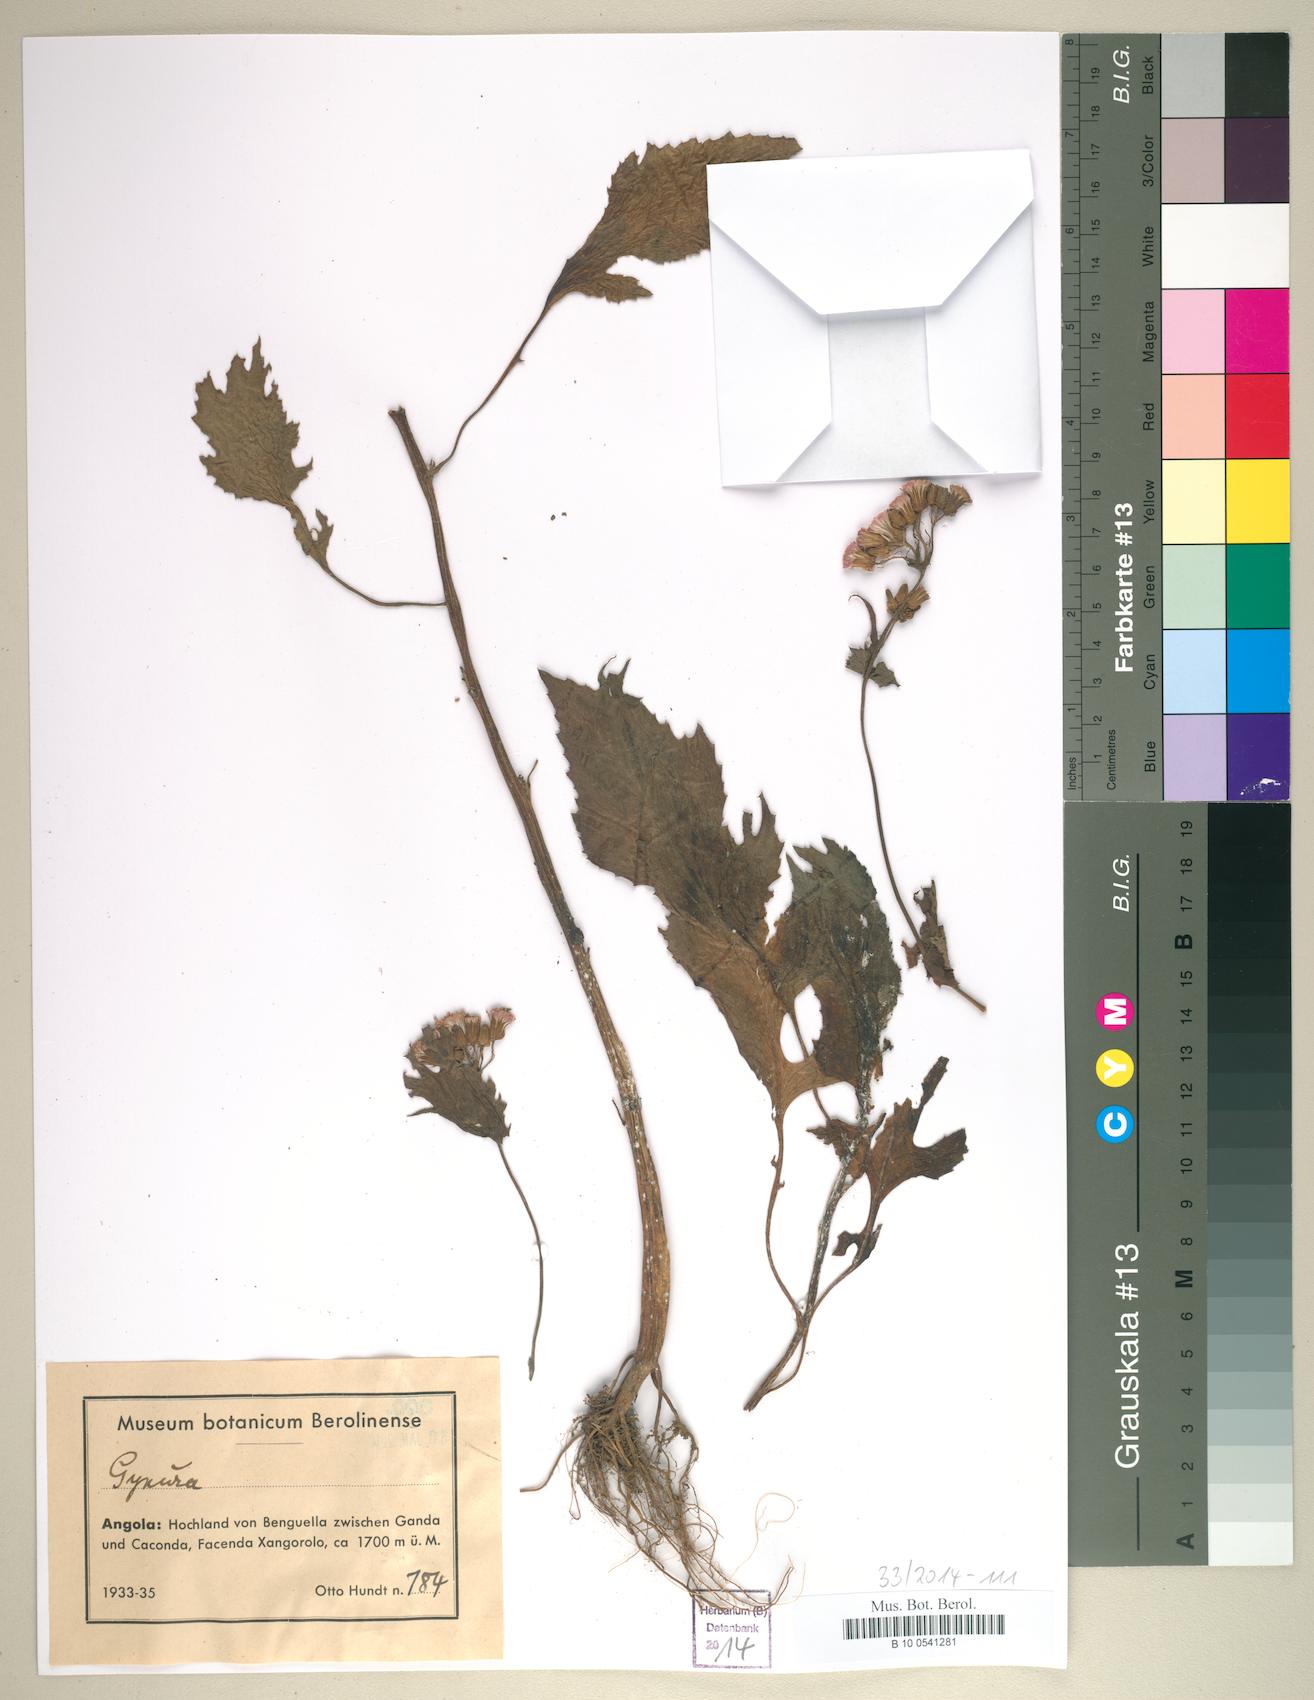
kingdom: Plantae
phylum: Tracheophyta
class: Magnoliopsida
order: Asterales
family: Asteraceae
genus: Gynura
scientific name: Gynura
